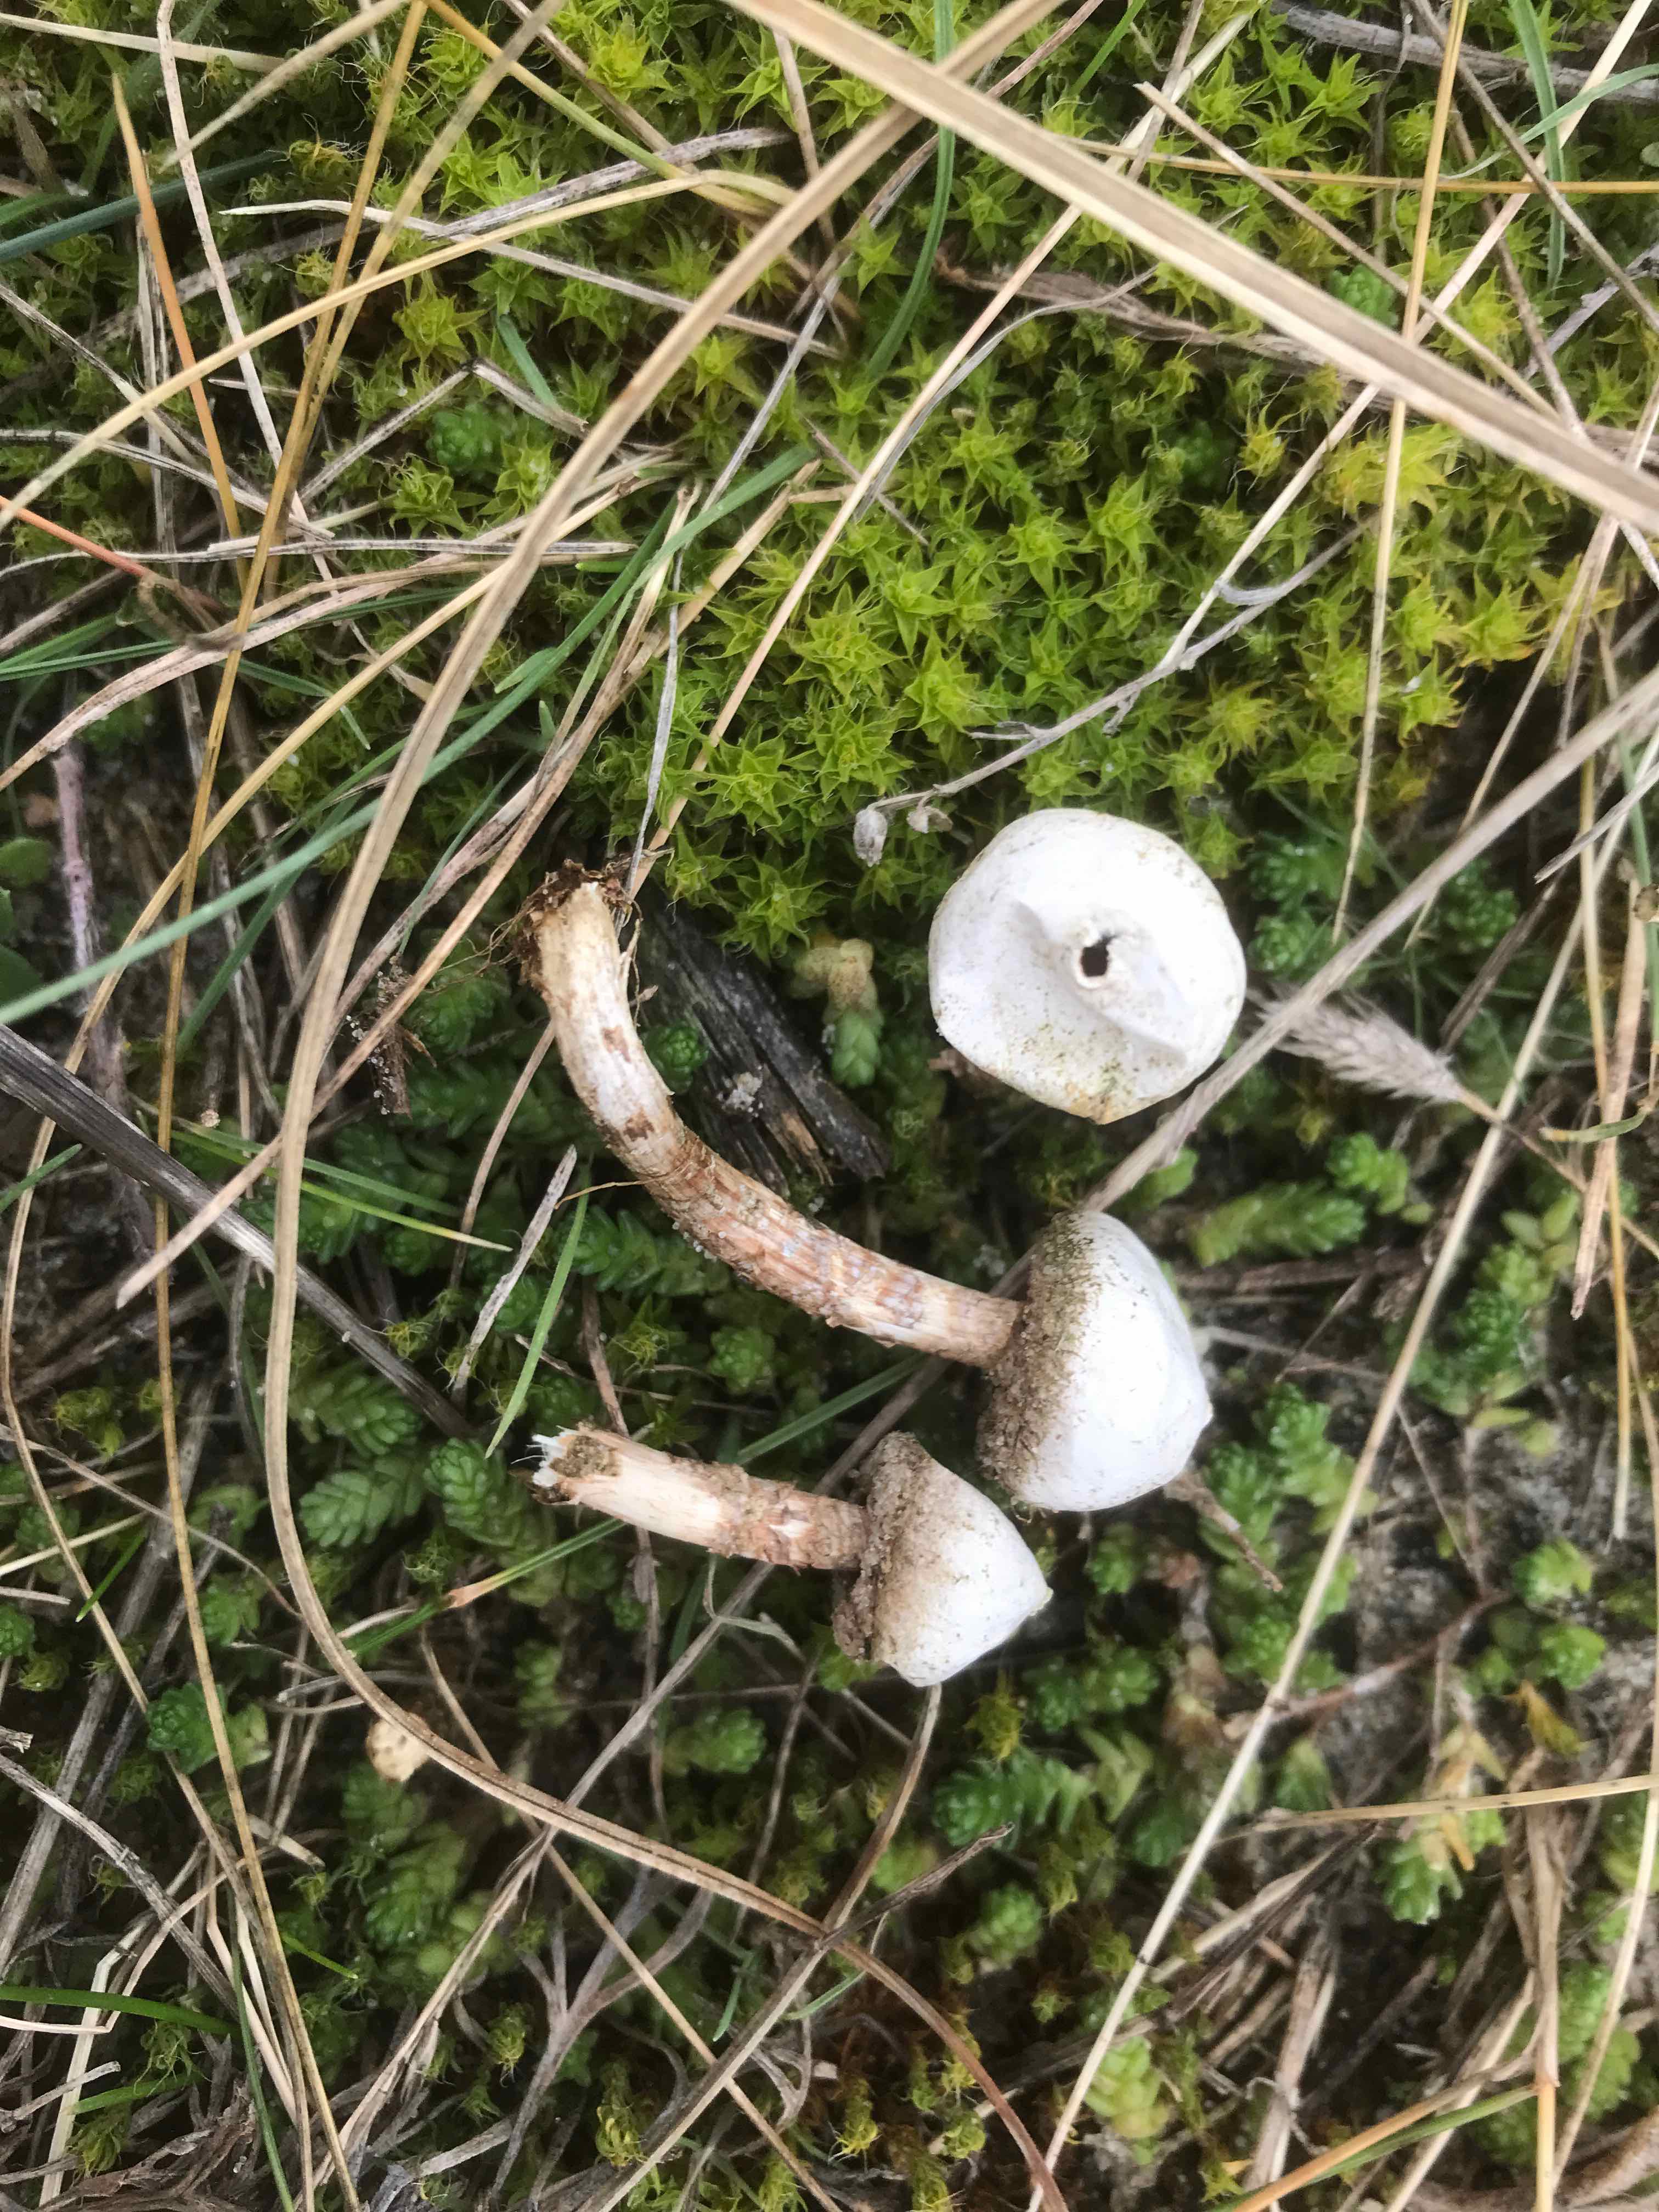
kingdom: Fungi
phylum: Basidiomycota
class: Agaricomycetes
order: Agaricales
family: Agaricaceae
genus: Tulostoma
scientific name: Tulostoma brumale
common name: vinter-stilkbovist
